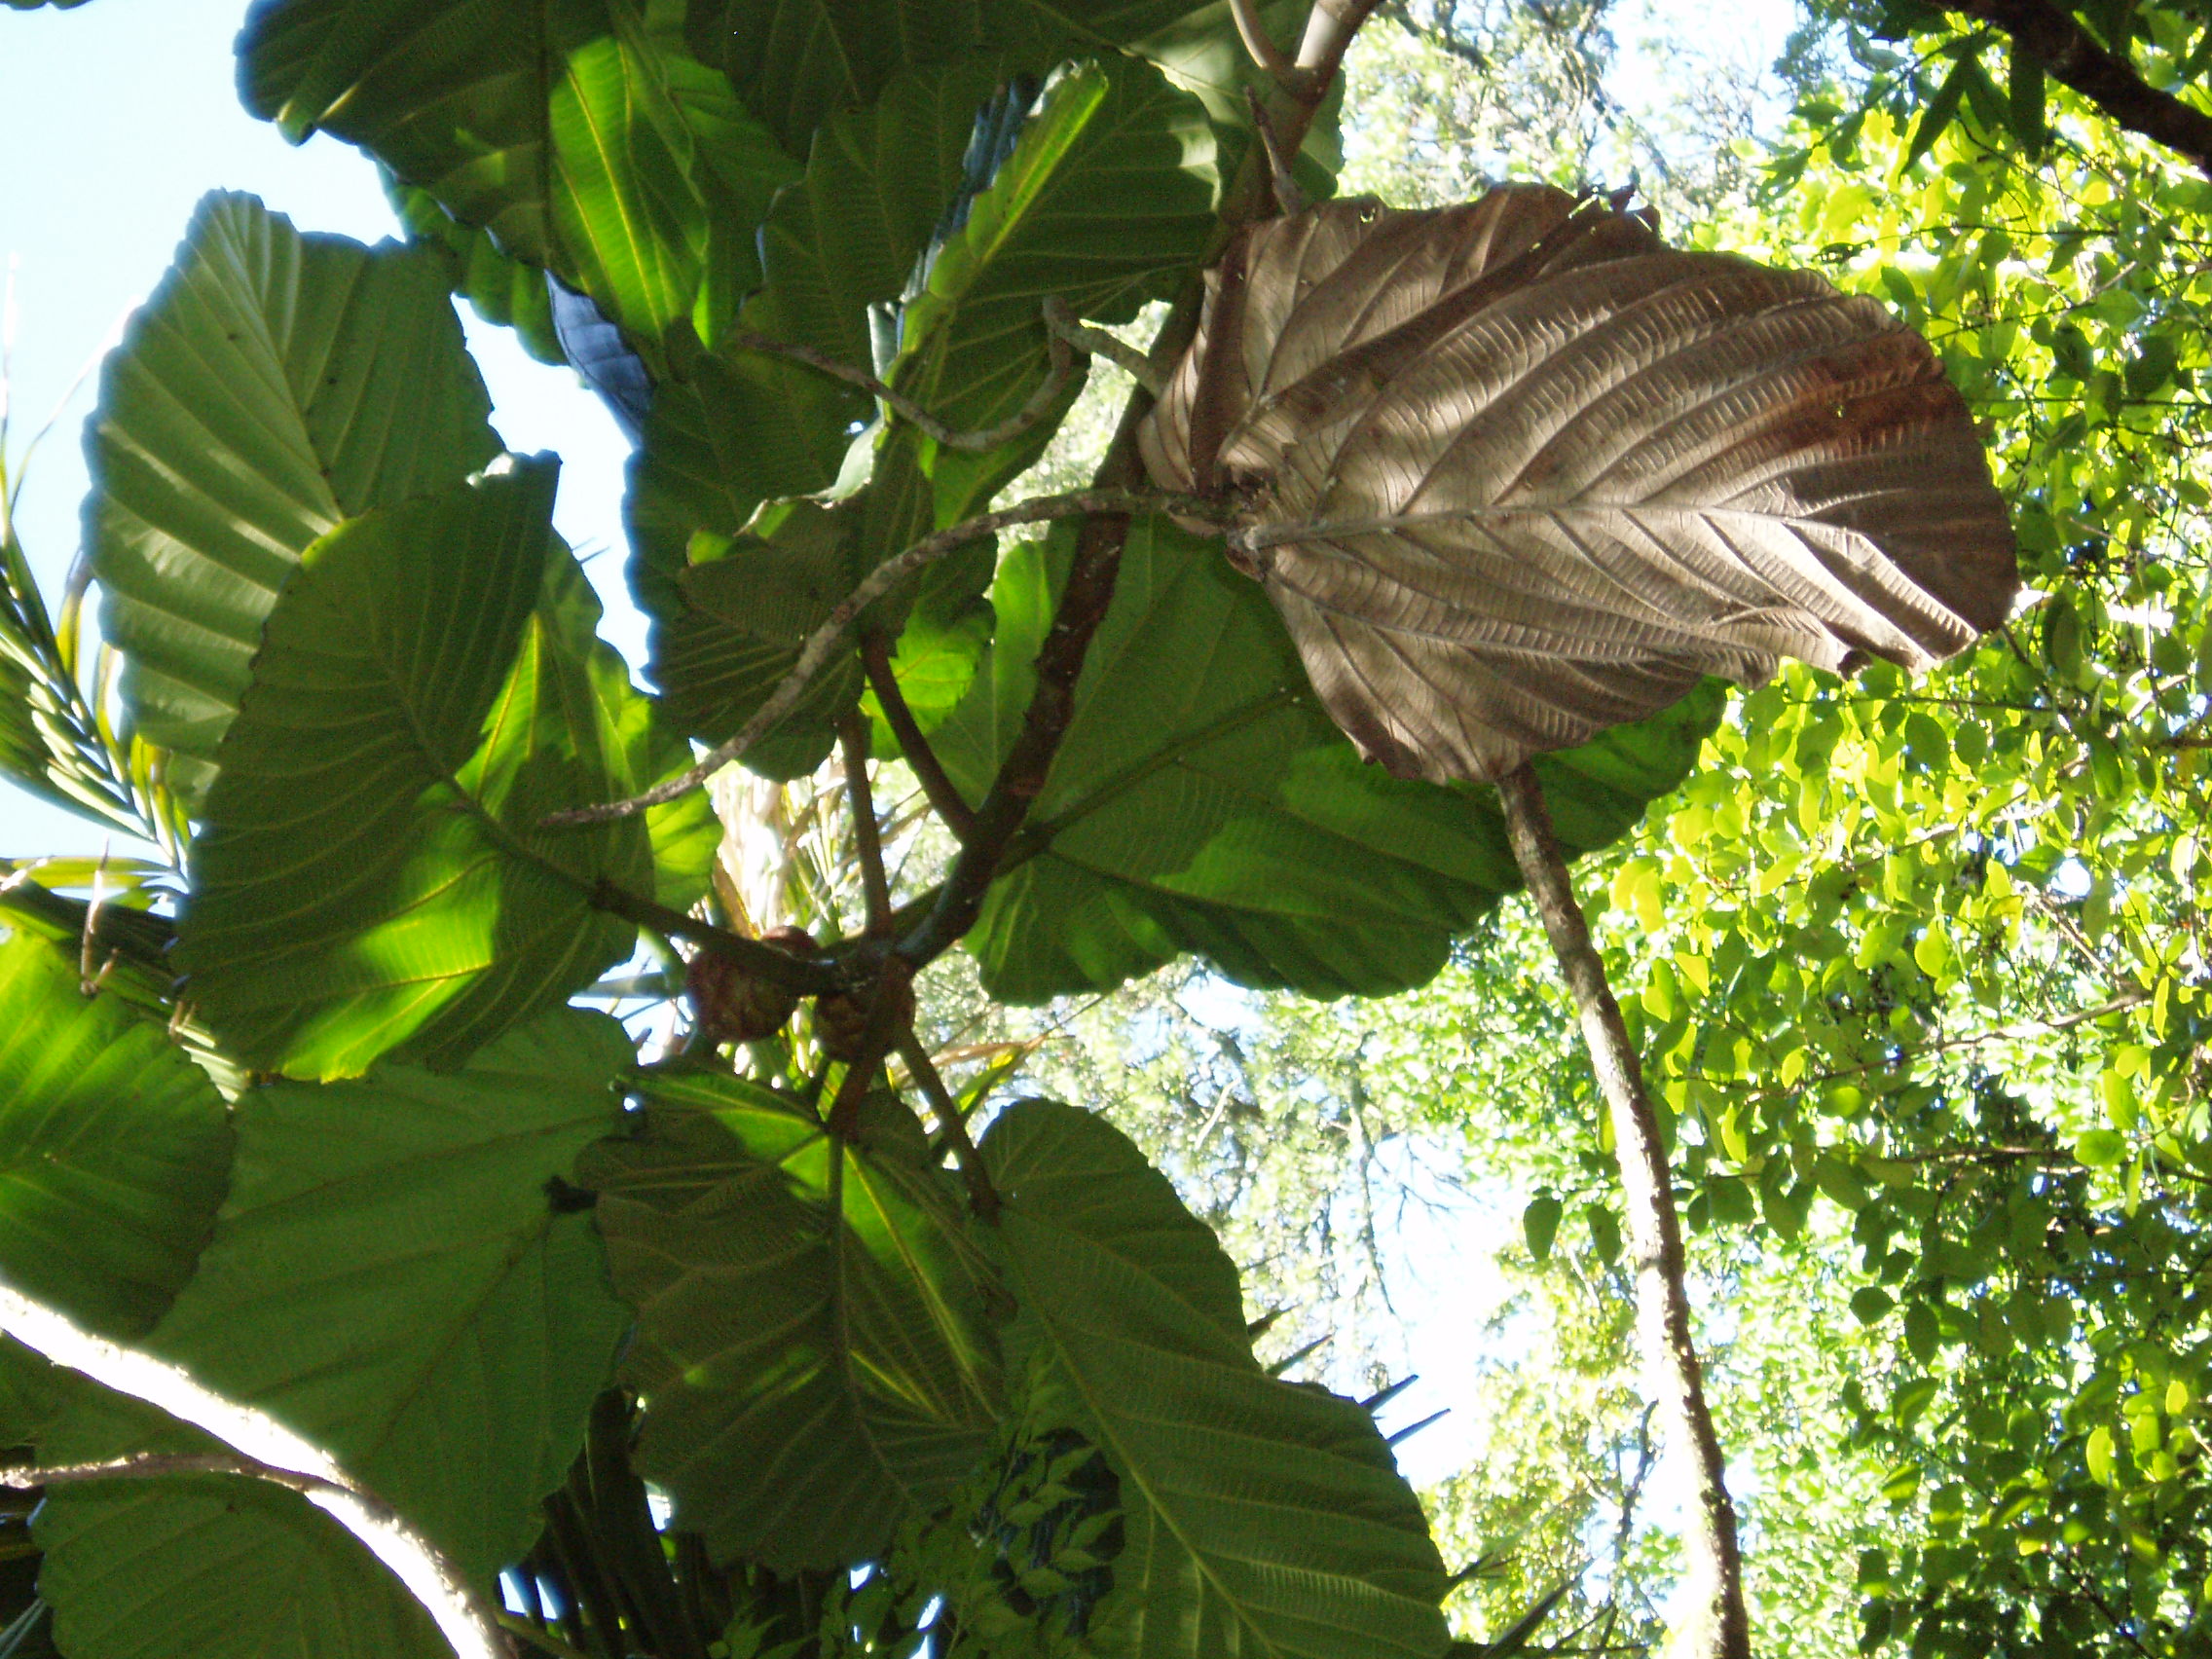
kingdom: Plantae
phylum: Tracheophyta
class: Magnoliopsida
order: Rosales
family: Moraceae
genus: Ficus
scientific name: Ficus dammaropsis
